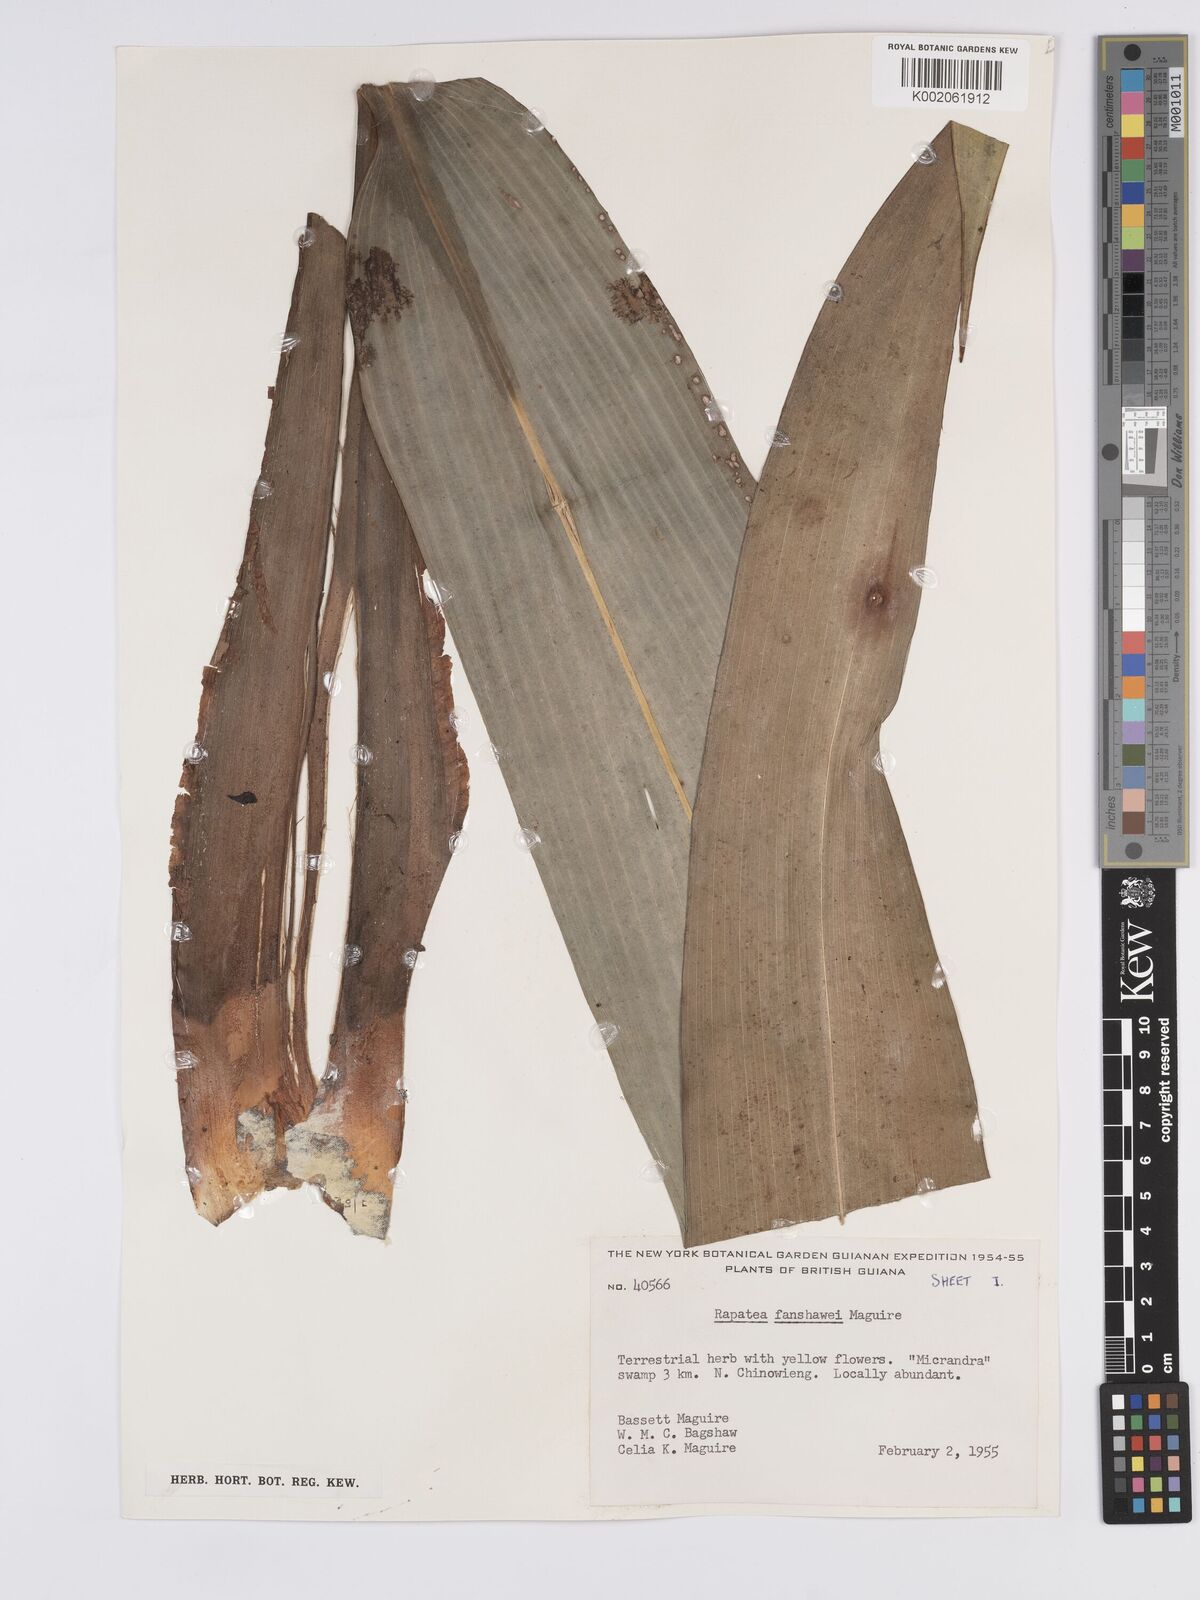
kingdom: Plantae
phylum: Tracheophyta
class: Liliopsida
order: Poales
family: Rapateaceae
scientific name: Rapateaceae
